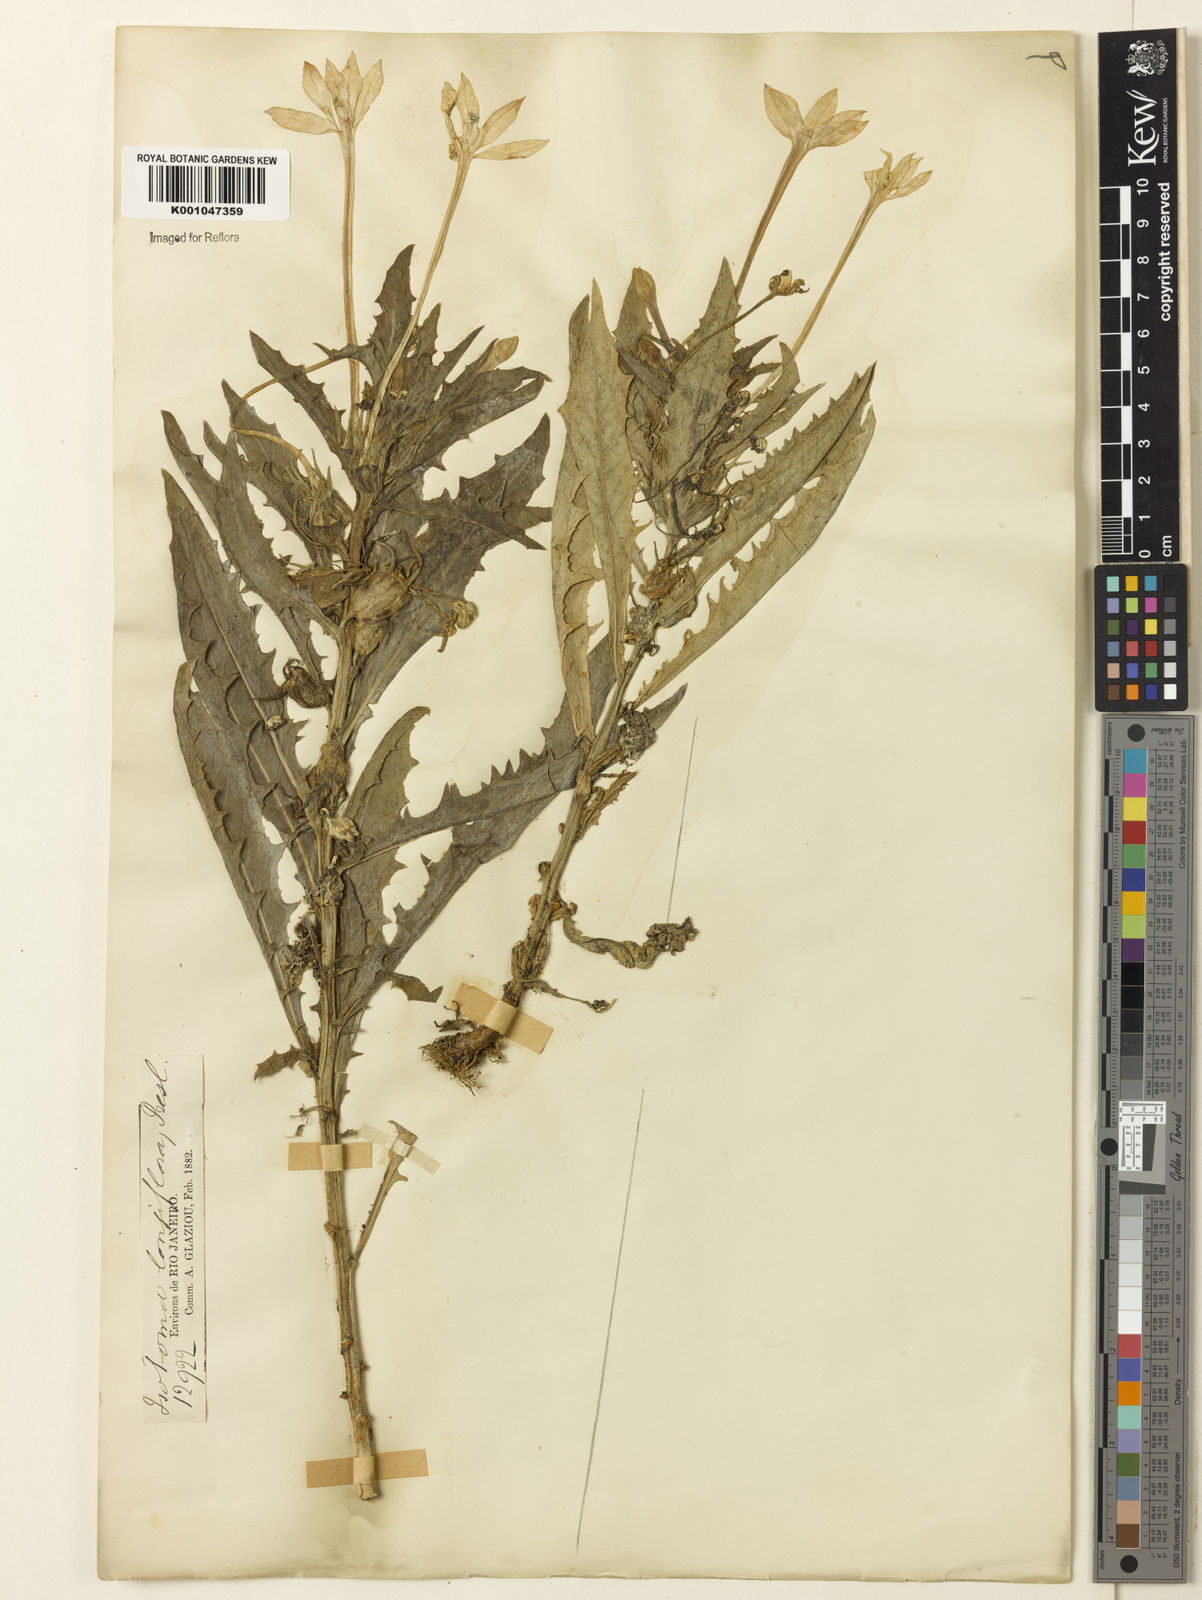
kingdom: Plantae
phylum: Tracheophyta
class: Magnoliopsida
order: Asterales
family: Campanulaceae
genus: Hippobroma
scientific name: Hippobroma longiflora
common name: Madamfate
